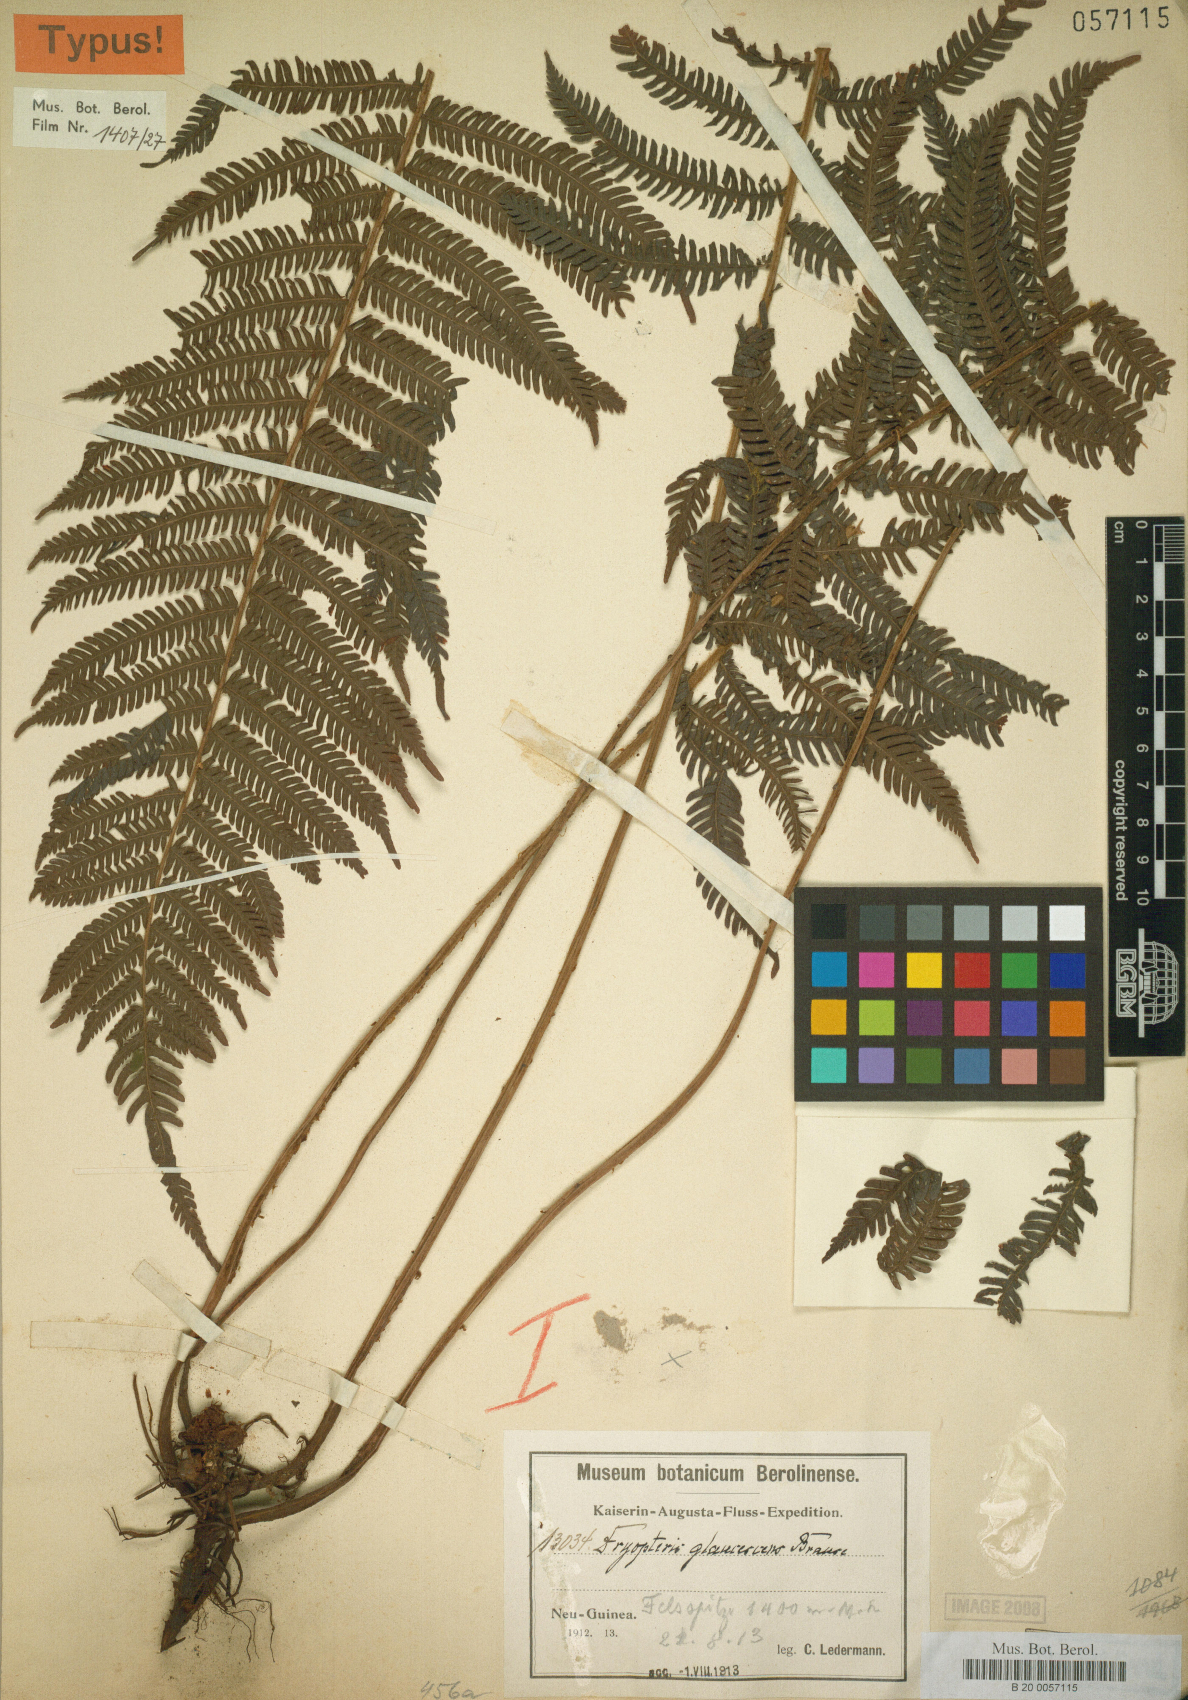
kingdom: Plantae
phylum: Tracheophyta
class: Polypodiopsida
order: Polypodiales
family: Thelypteridaceae
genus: Sphaerostephanos
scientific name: Sphaerostephanos novoguineensis
